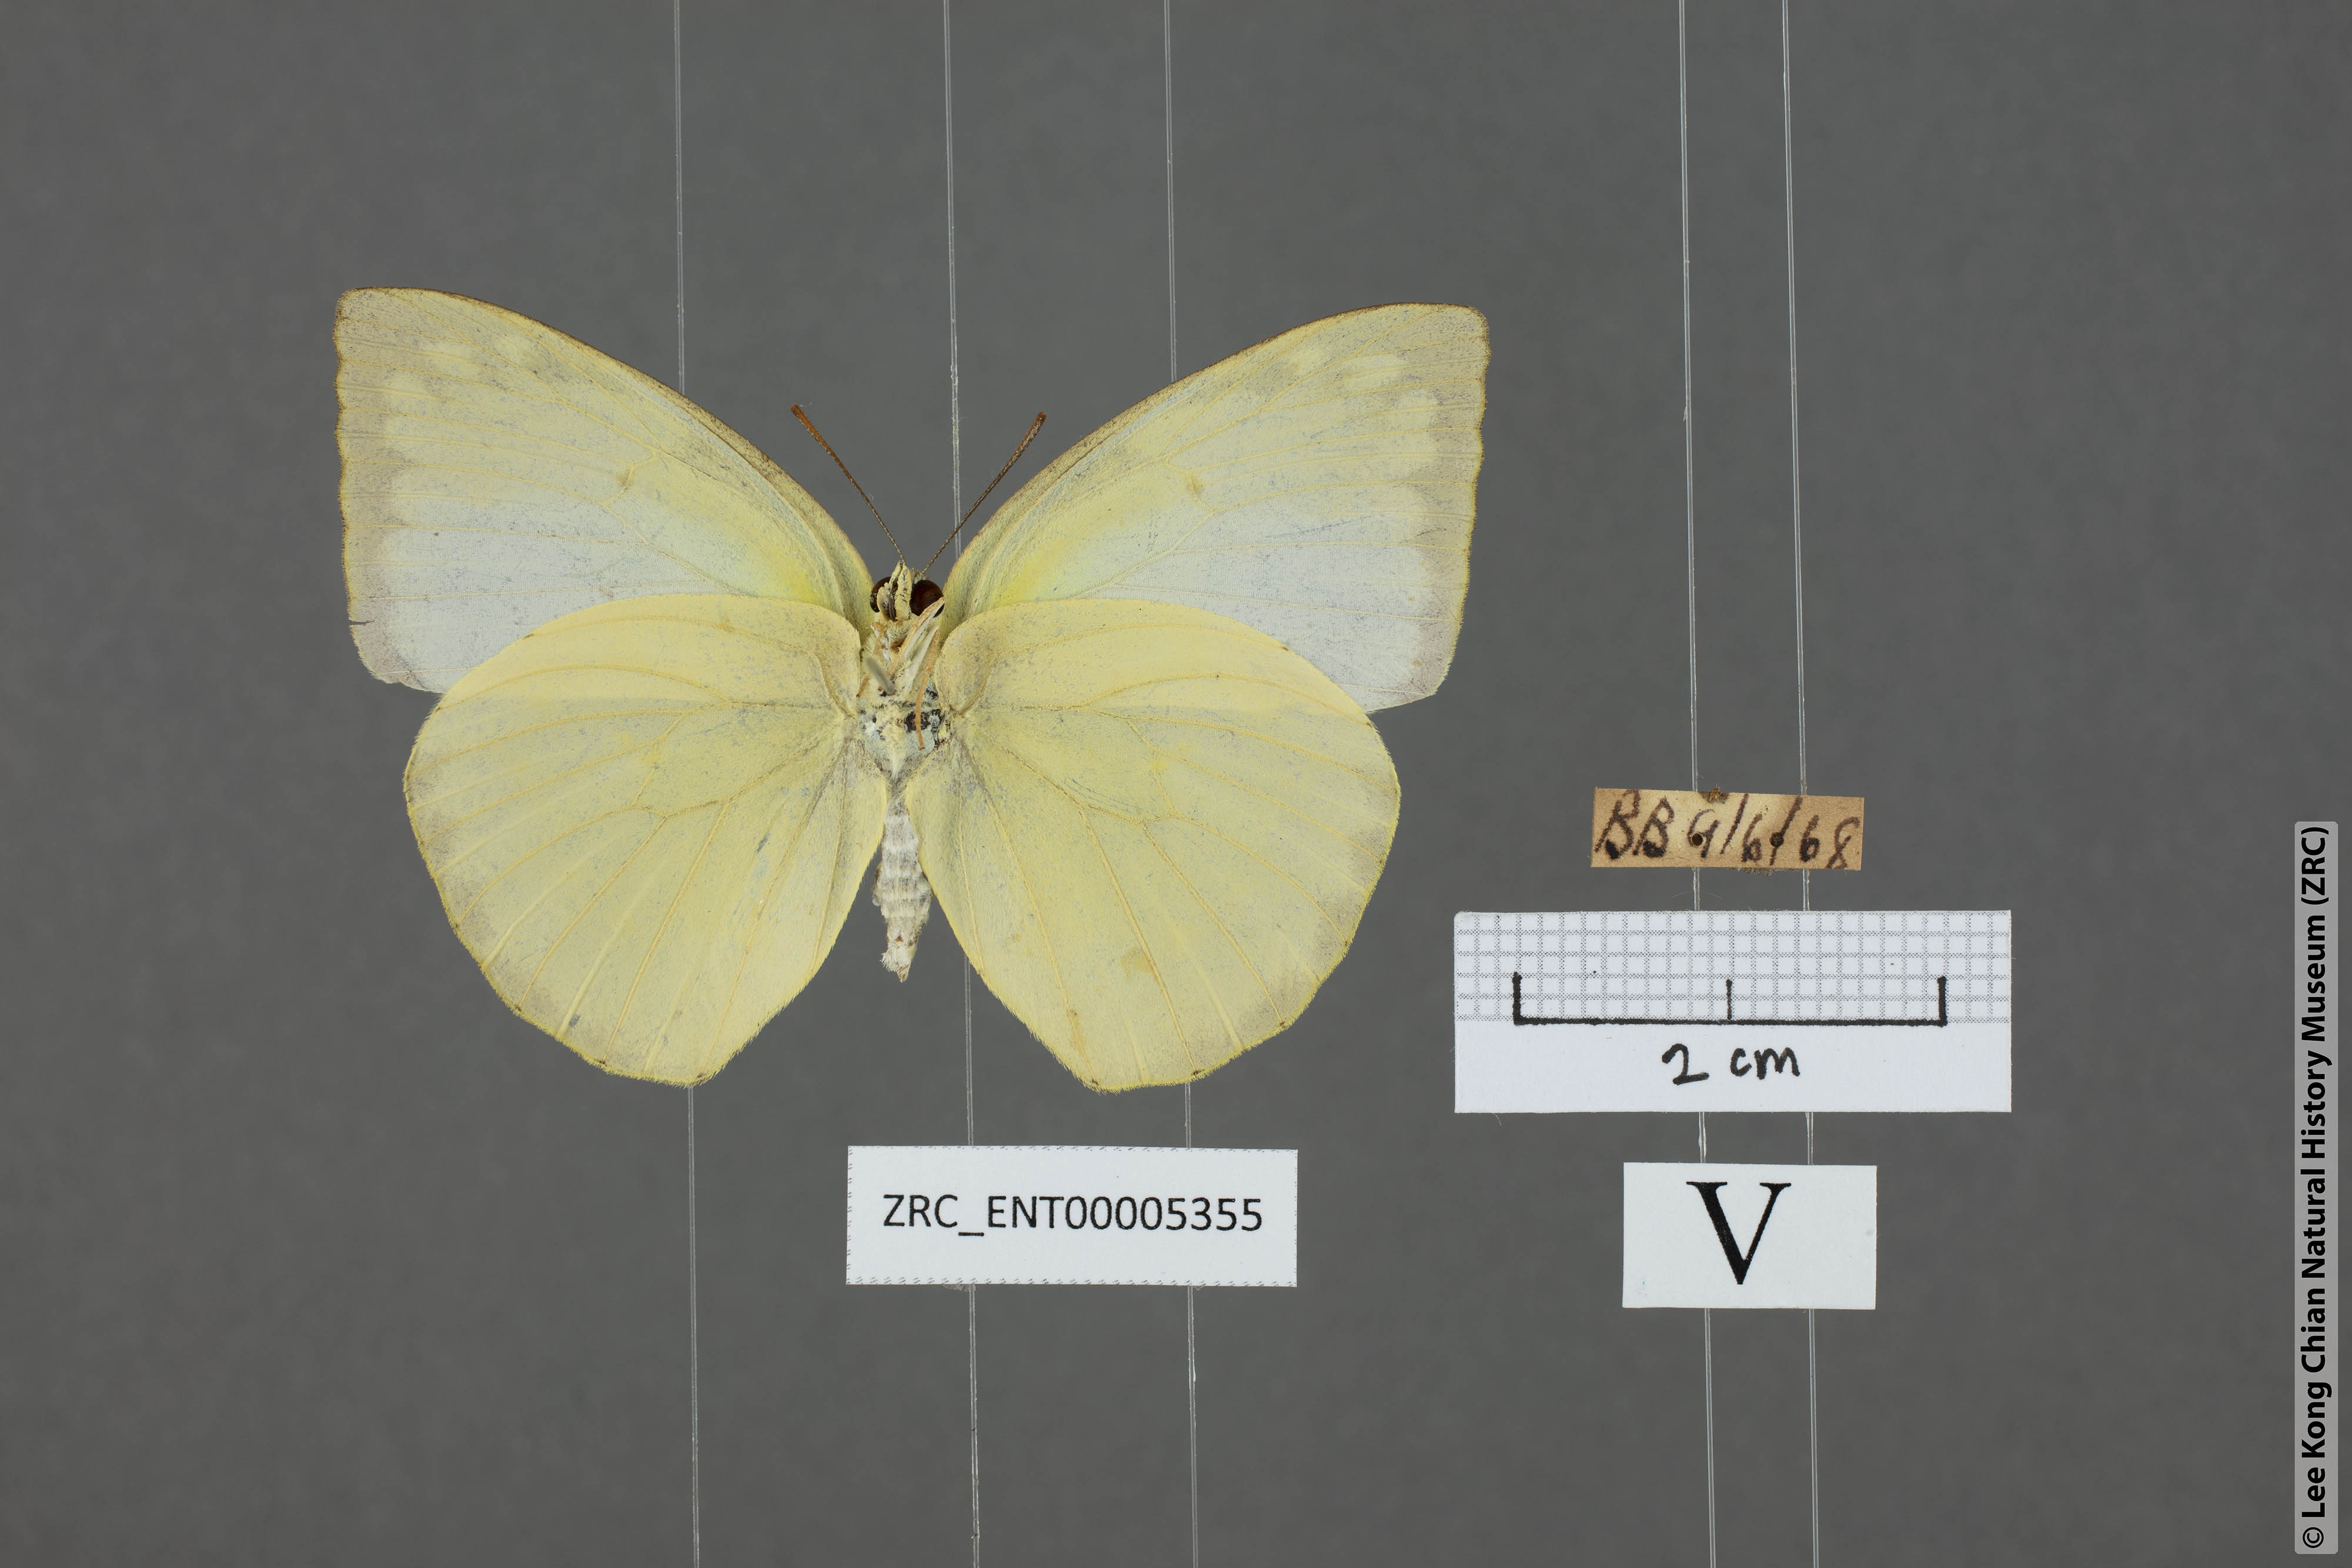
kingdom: Animalia
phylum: Arthropoda
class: Insecta
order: Lepidoptera
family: Pieridae
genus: Catopsilia
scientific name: Catopsilia pomona
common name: Common emigrant
